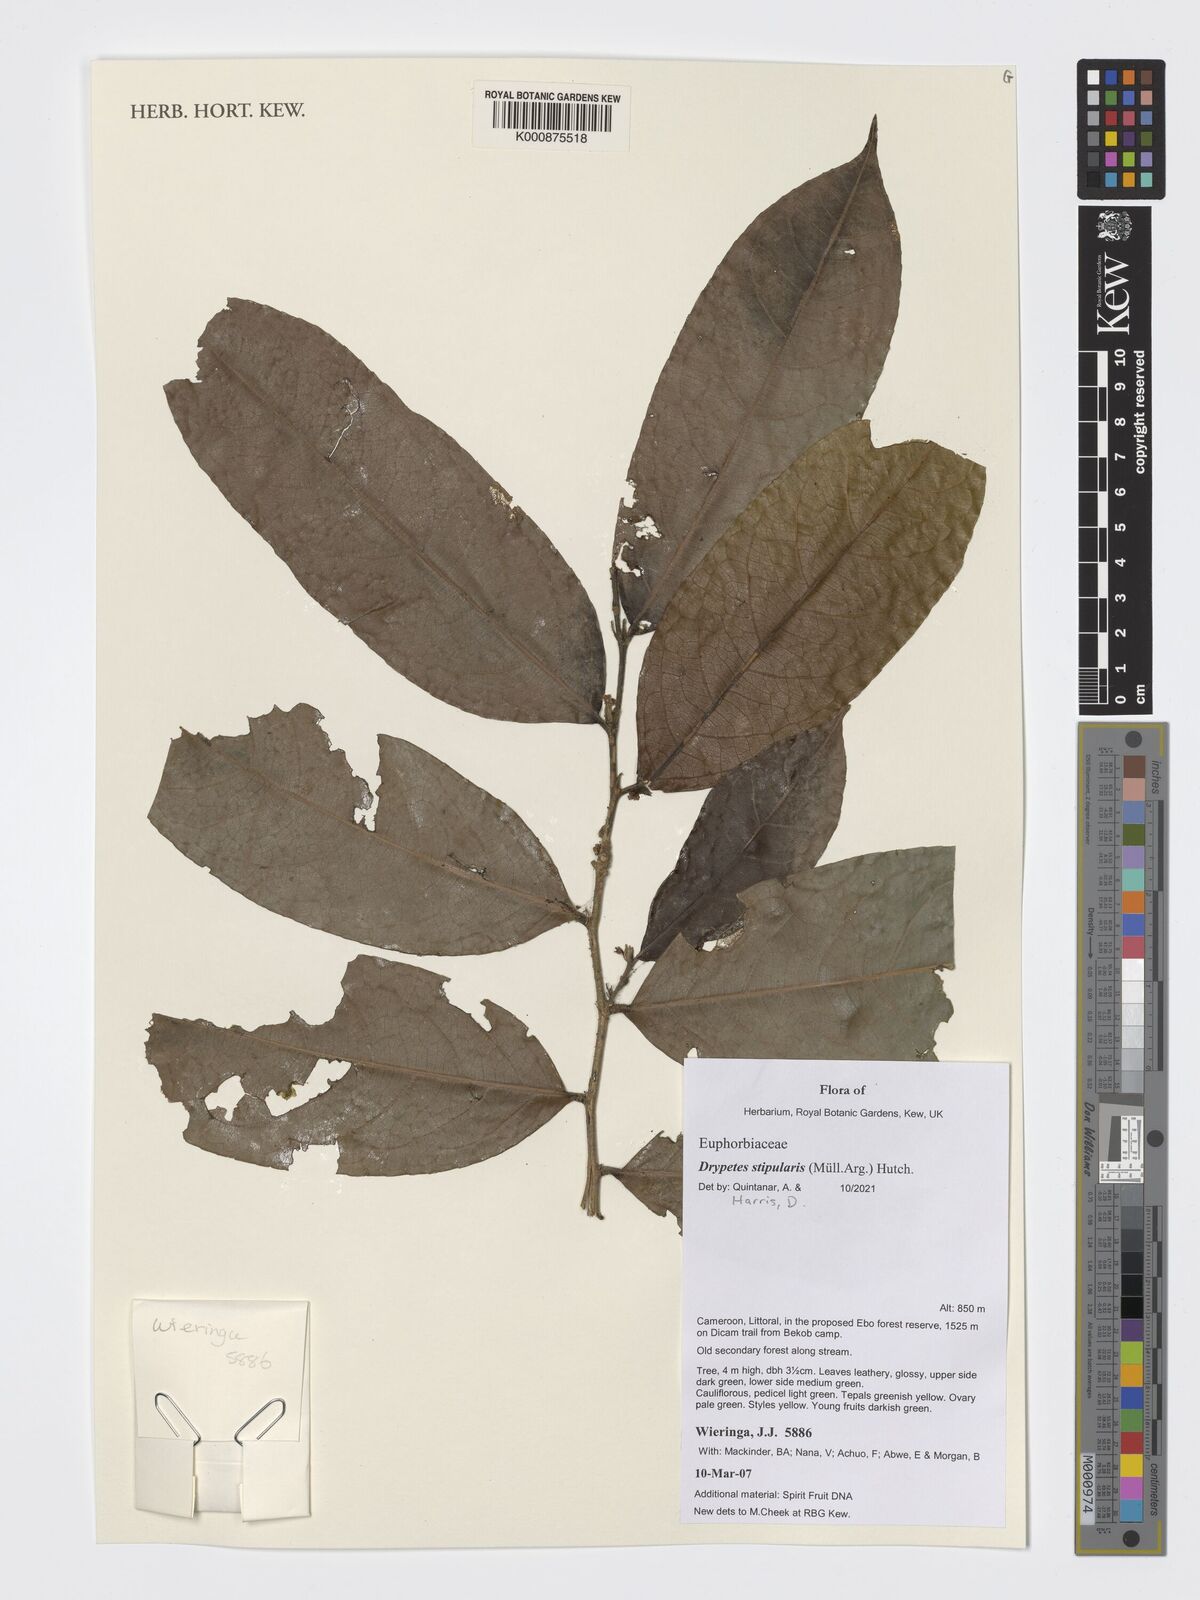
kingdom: Plantae
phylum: Tracheophyta
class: Magnoliopsida
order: Malpighiales
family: Putranjivaceae
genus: Drypetes
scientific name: Drypetes stipularis
